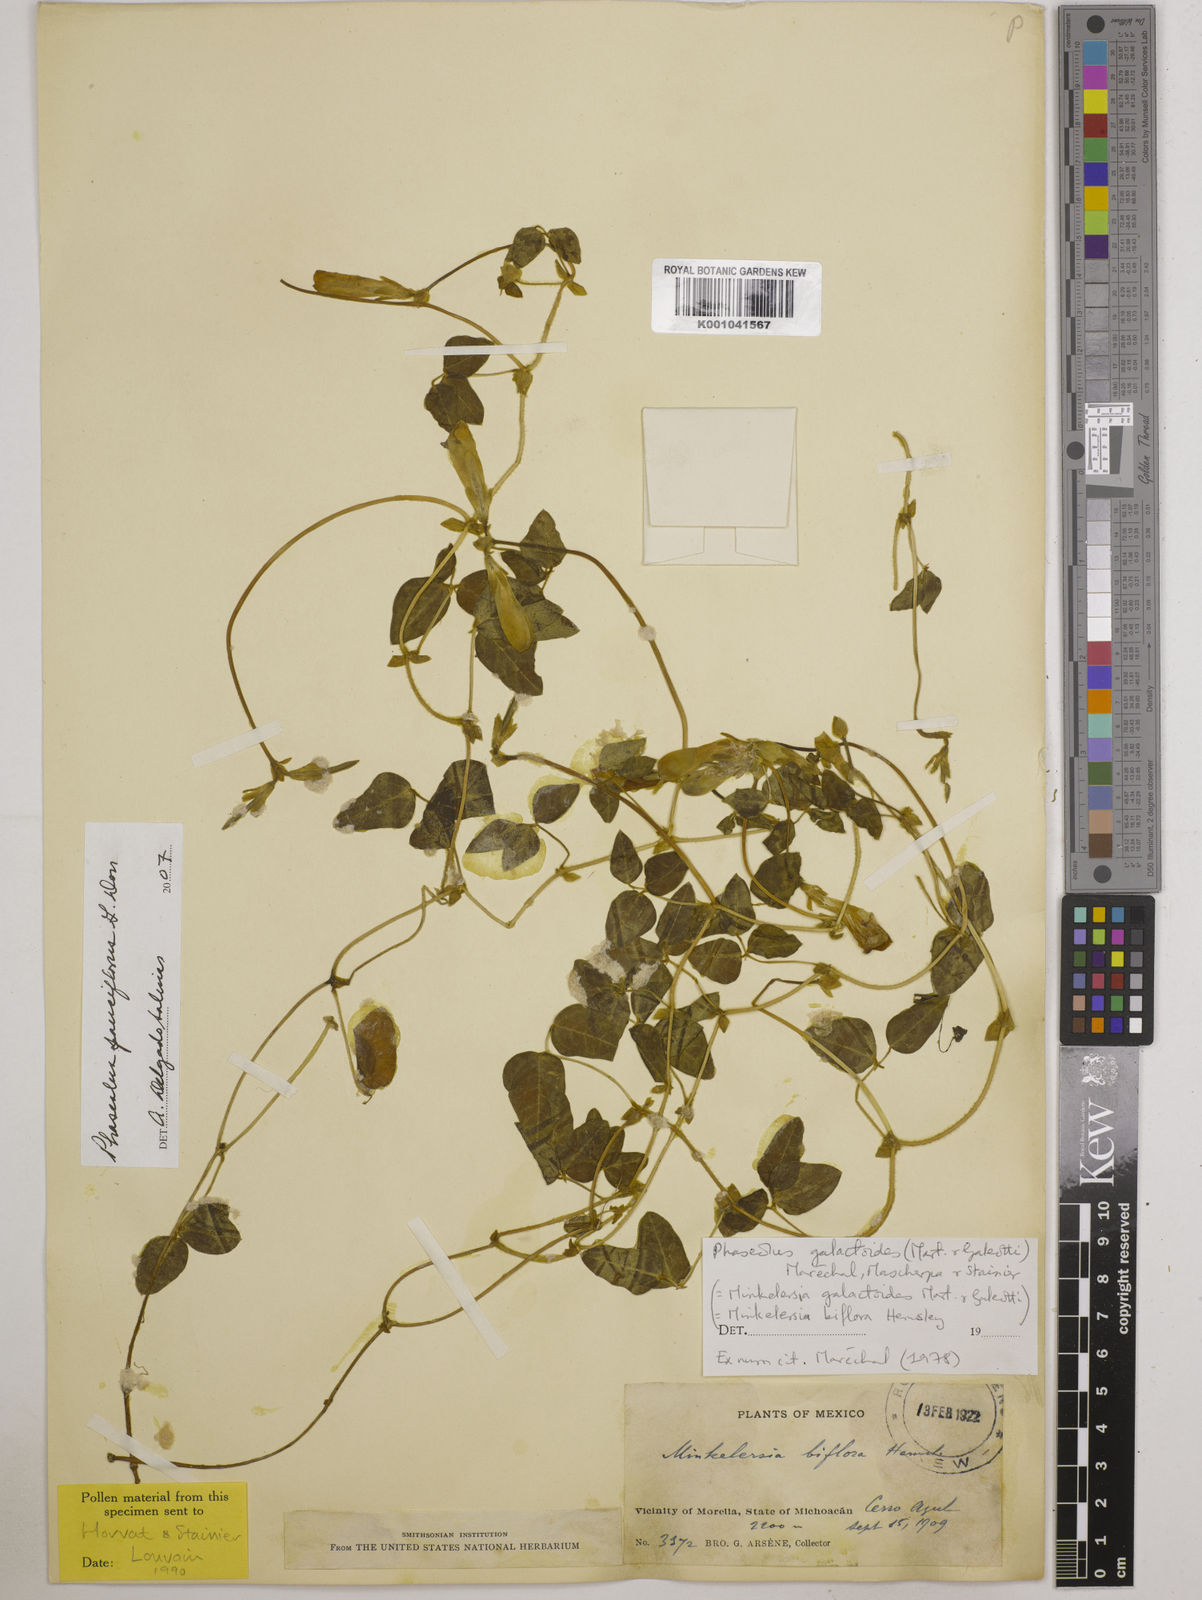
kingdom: Plantae
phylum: Tracheophyta
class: Magnoliopsida
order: Fabales
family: Fabaceae
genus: Phaseolus
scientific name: Phaseolus
